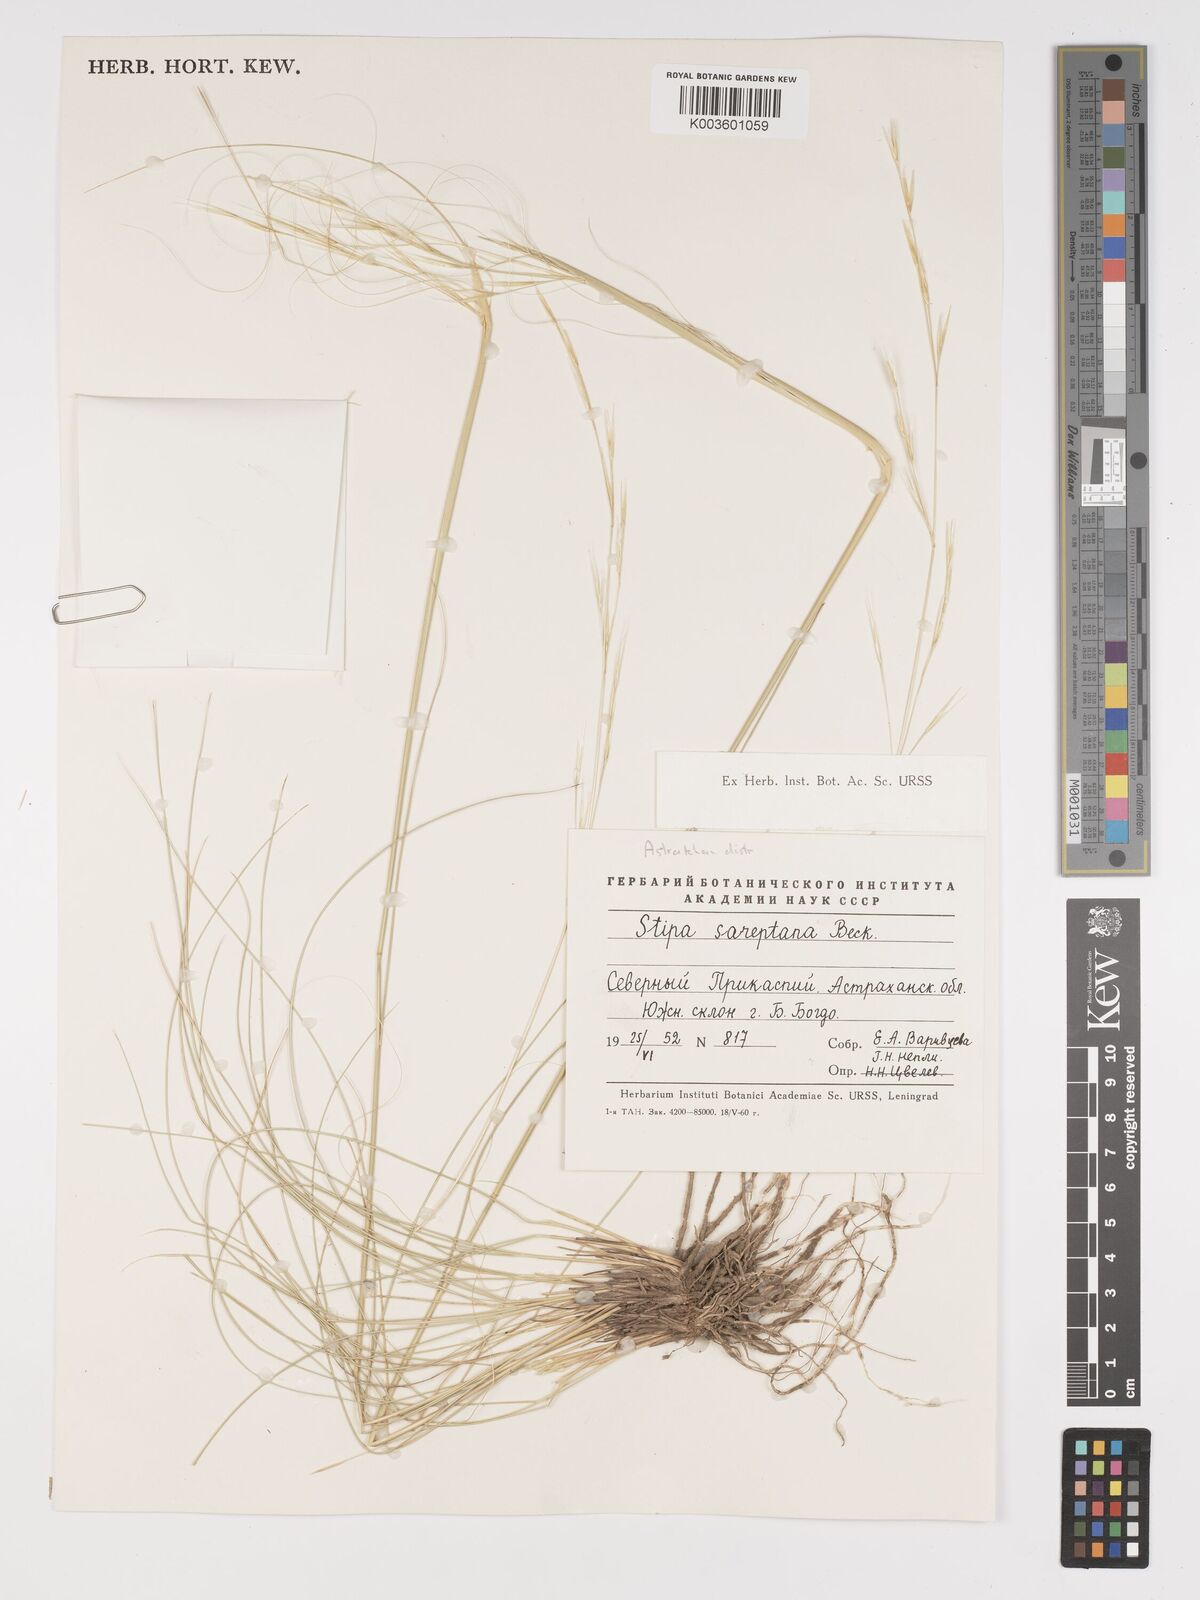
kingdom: Plantae
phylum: Tracheophyta
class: Liliopsida
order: Poales
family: Poaceae
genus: Stipa
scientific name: Stipa sareptana
